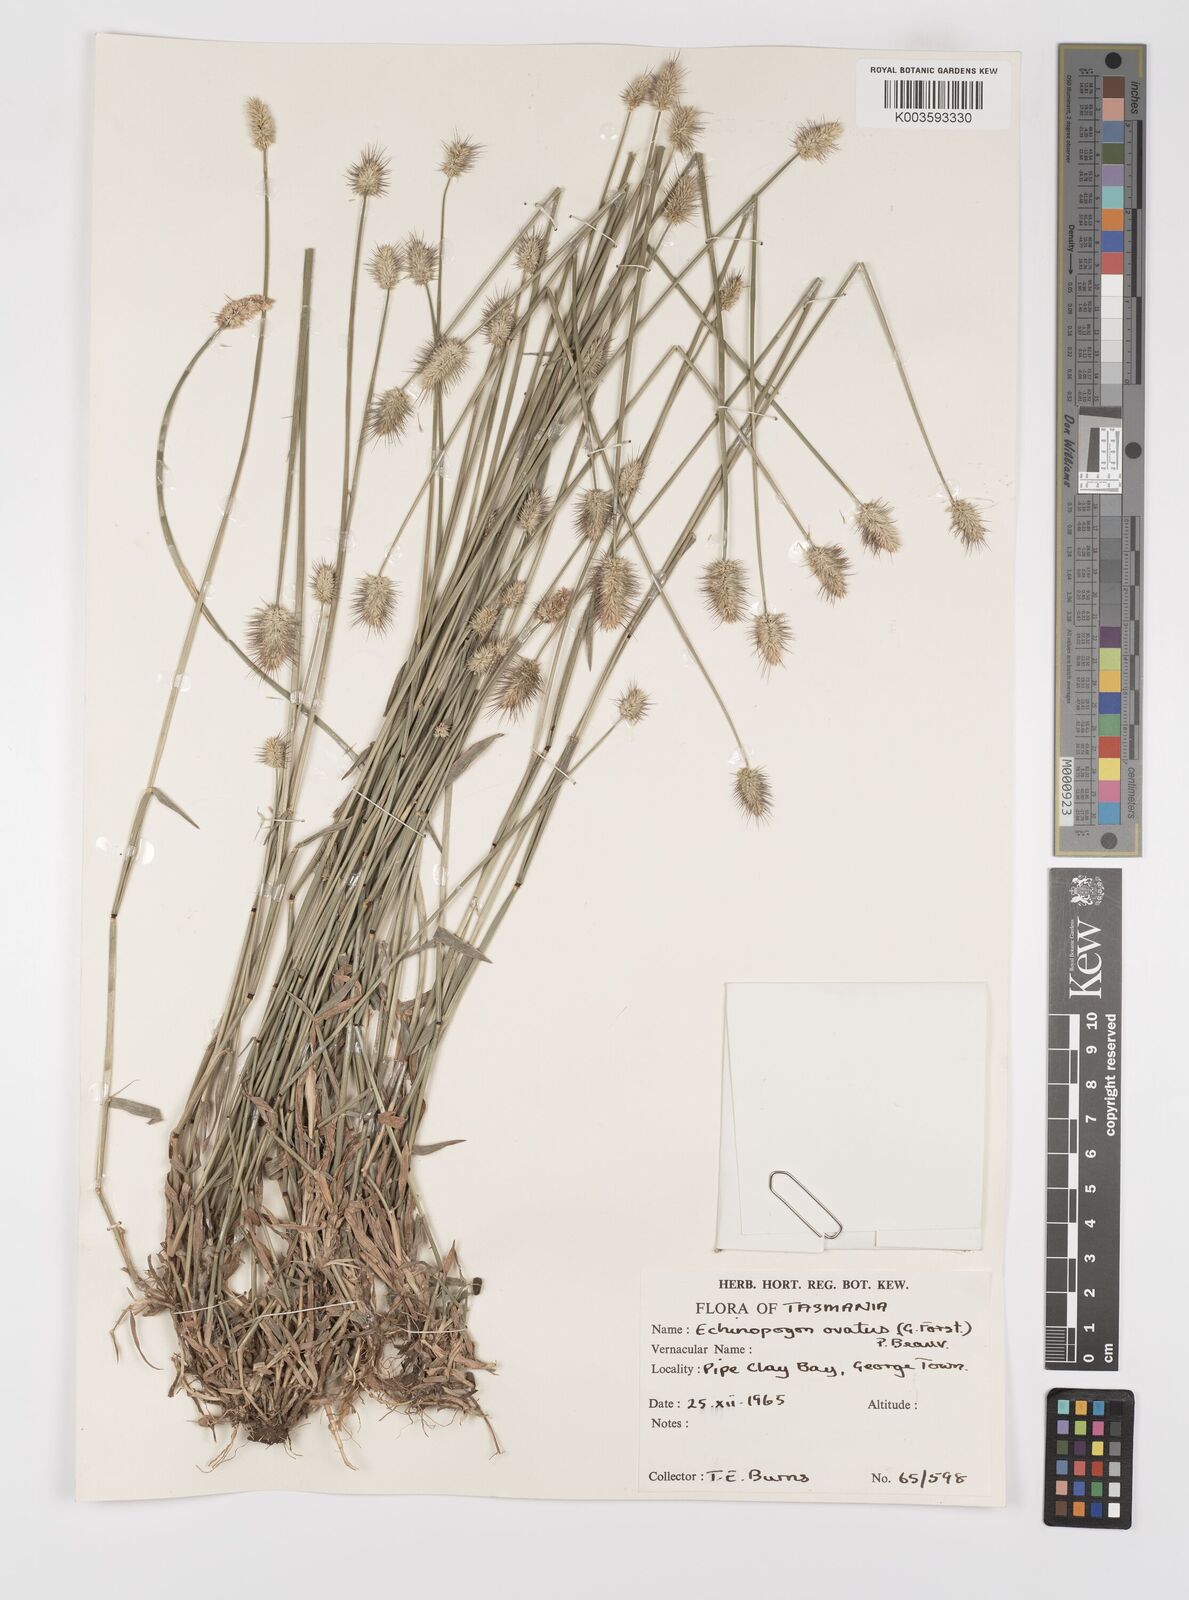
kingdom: Plantae
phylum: Tracheophyta
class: Liliopsida
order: Poales
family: Poaceae
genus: Echinopogon
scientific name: Echinopogon ovatus
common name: Hedgehog-grass
